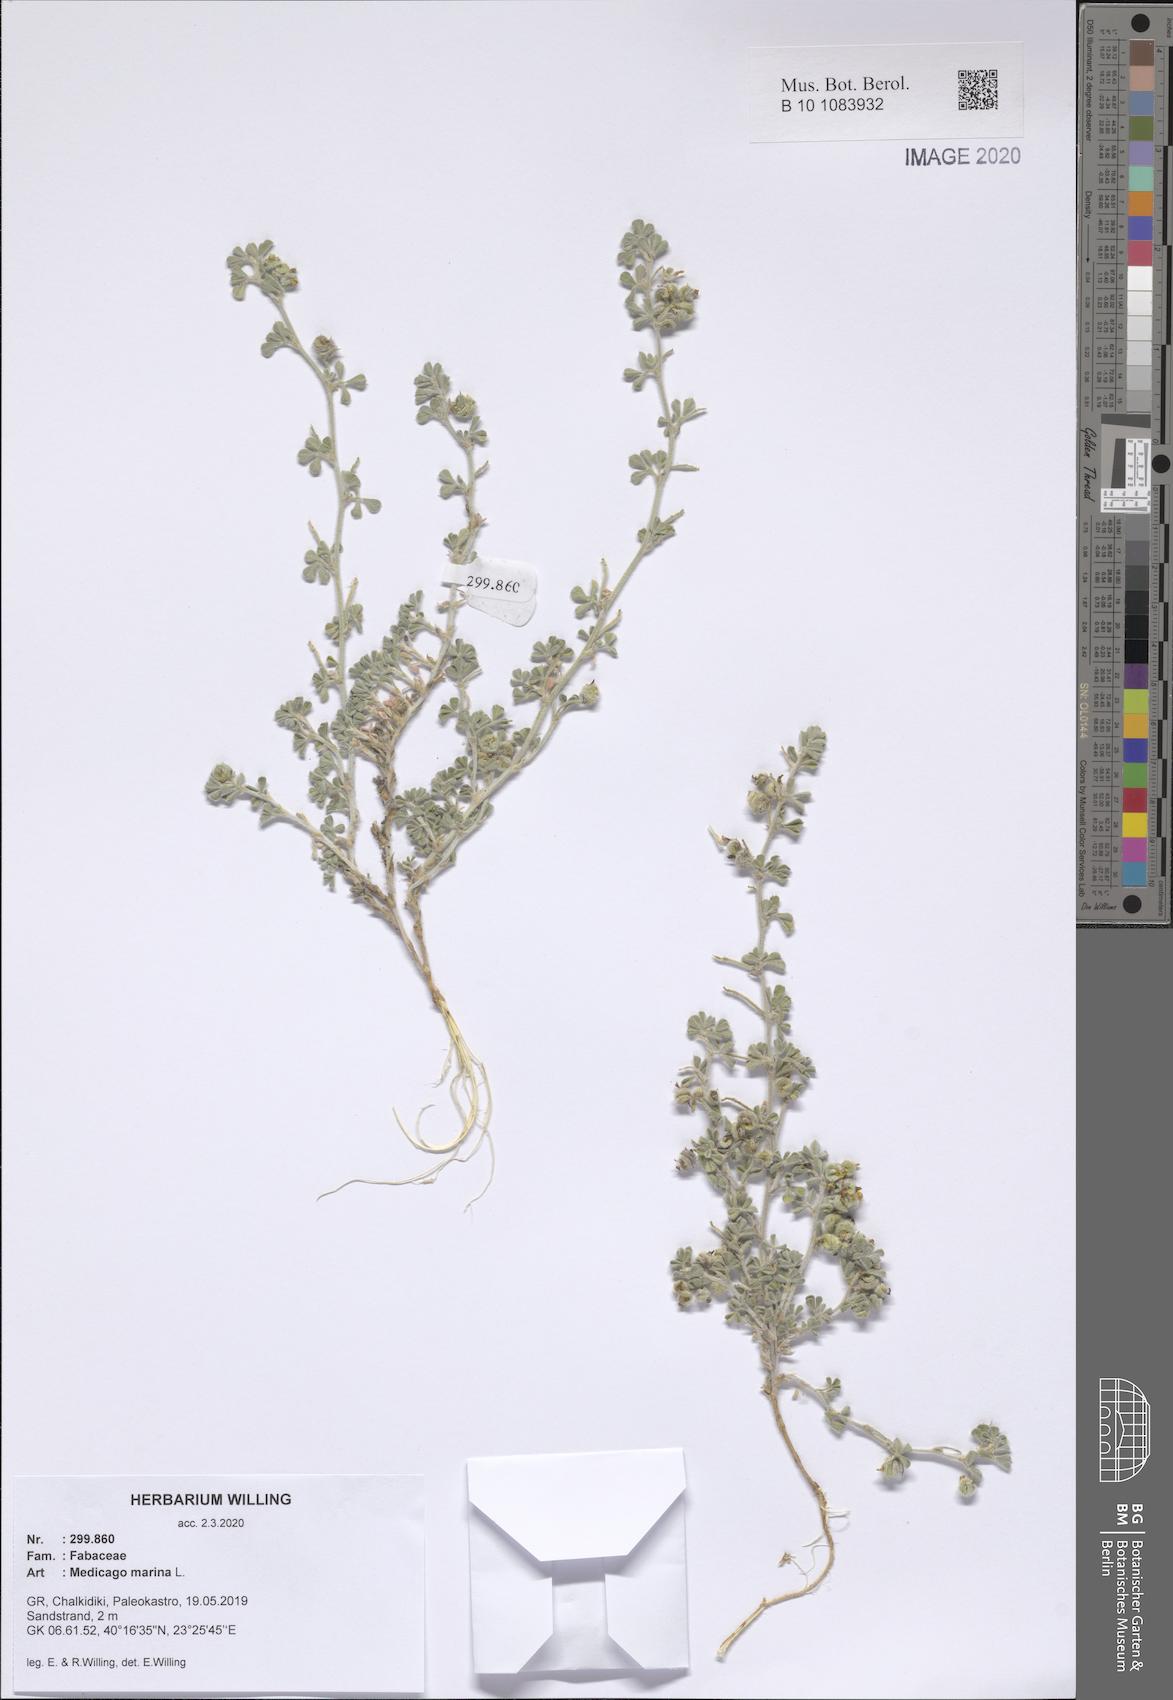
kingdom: Plantae
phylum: Tracheophyta
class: Magnoliopsida
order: Fabales
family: Fabaceae
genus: Medicago
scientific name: Medicago marina
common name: Sea medick
